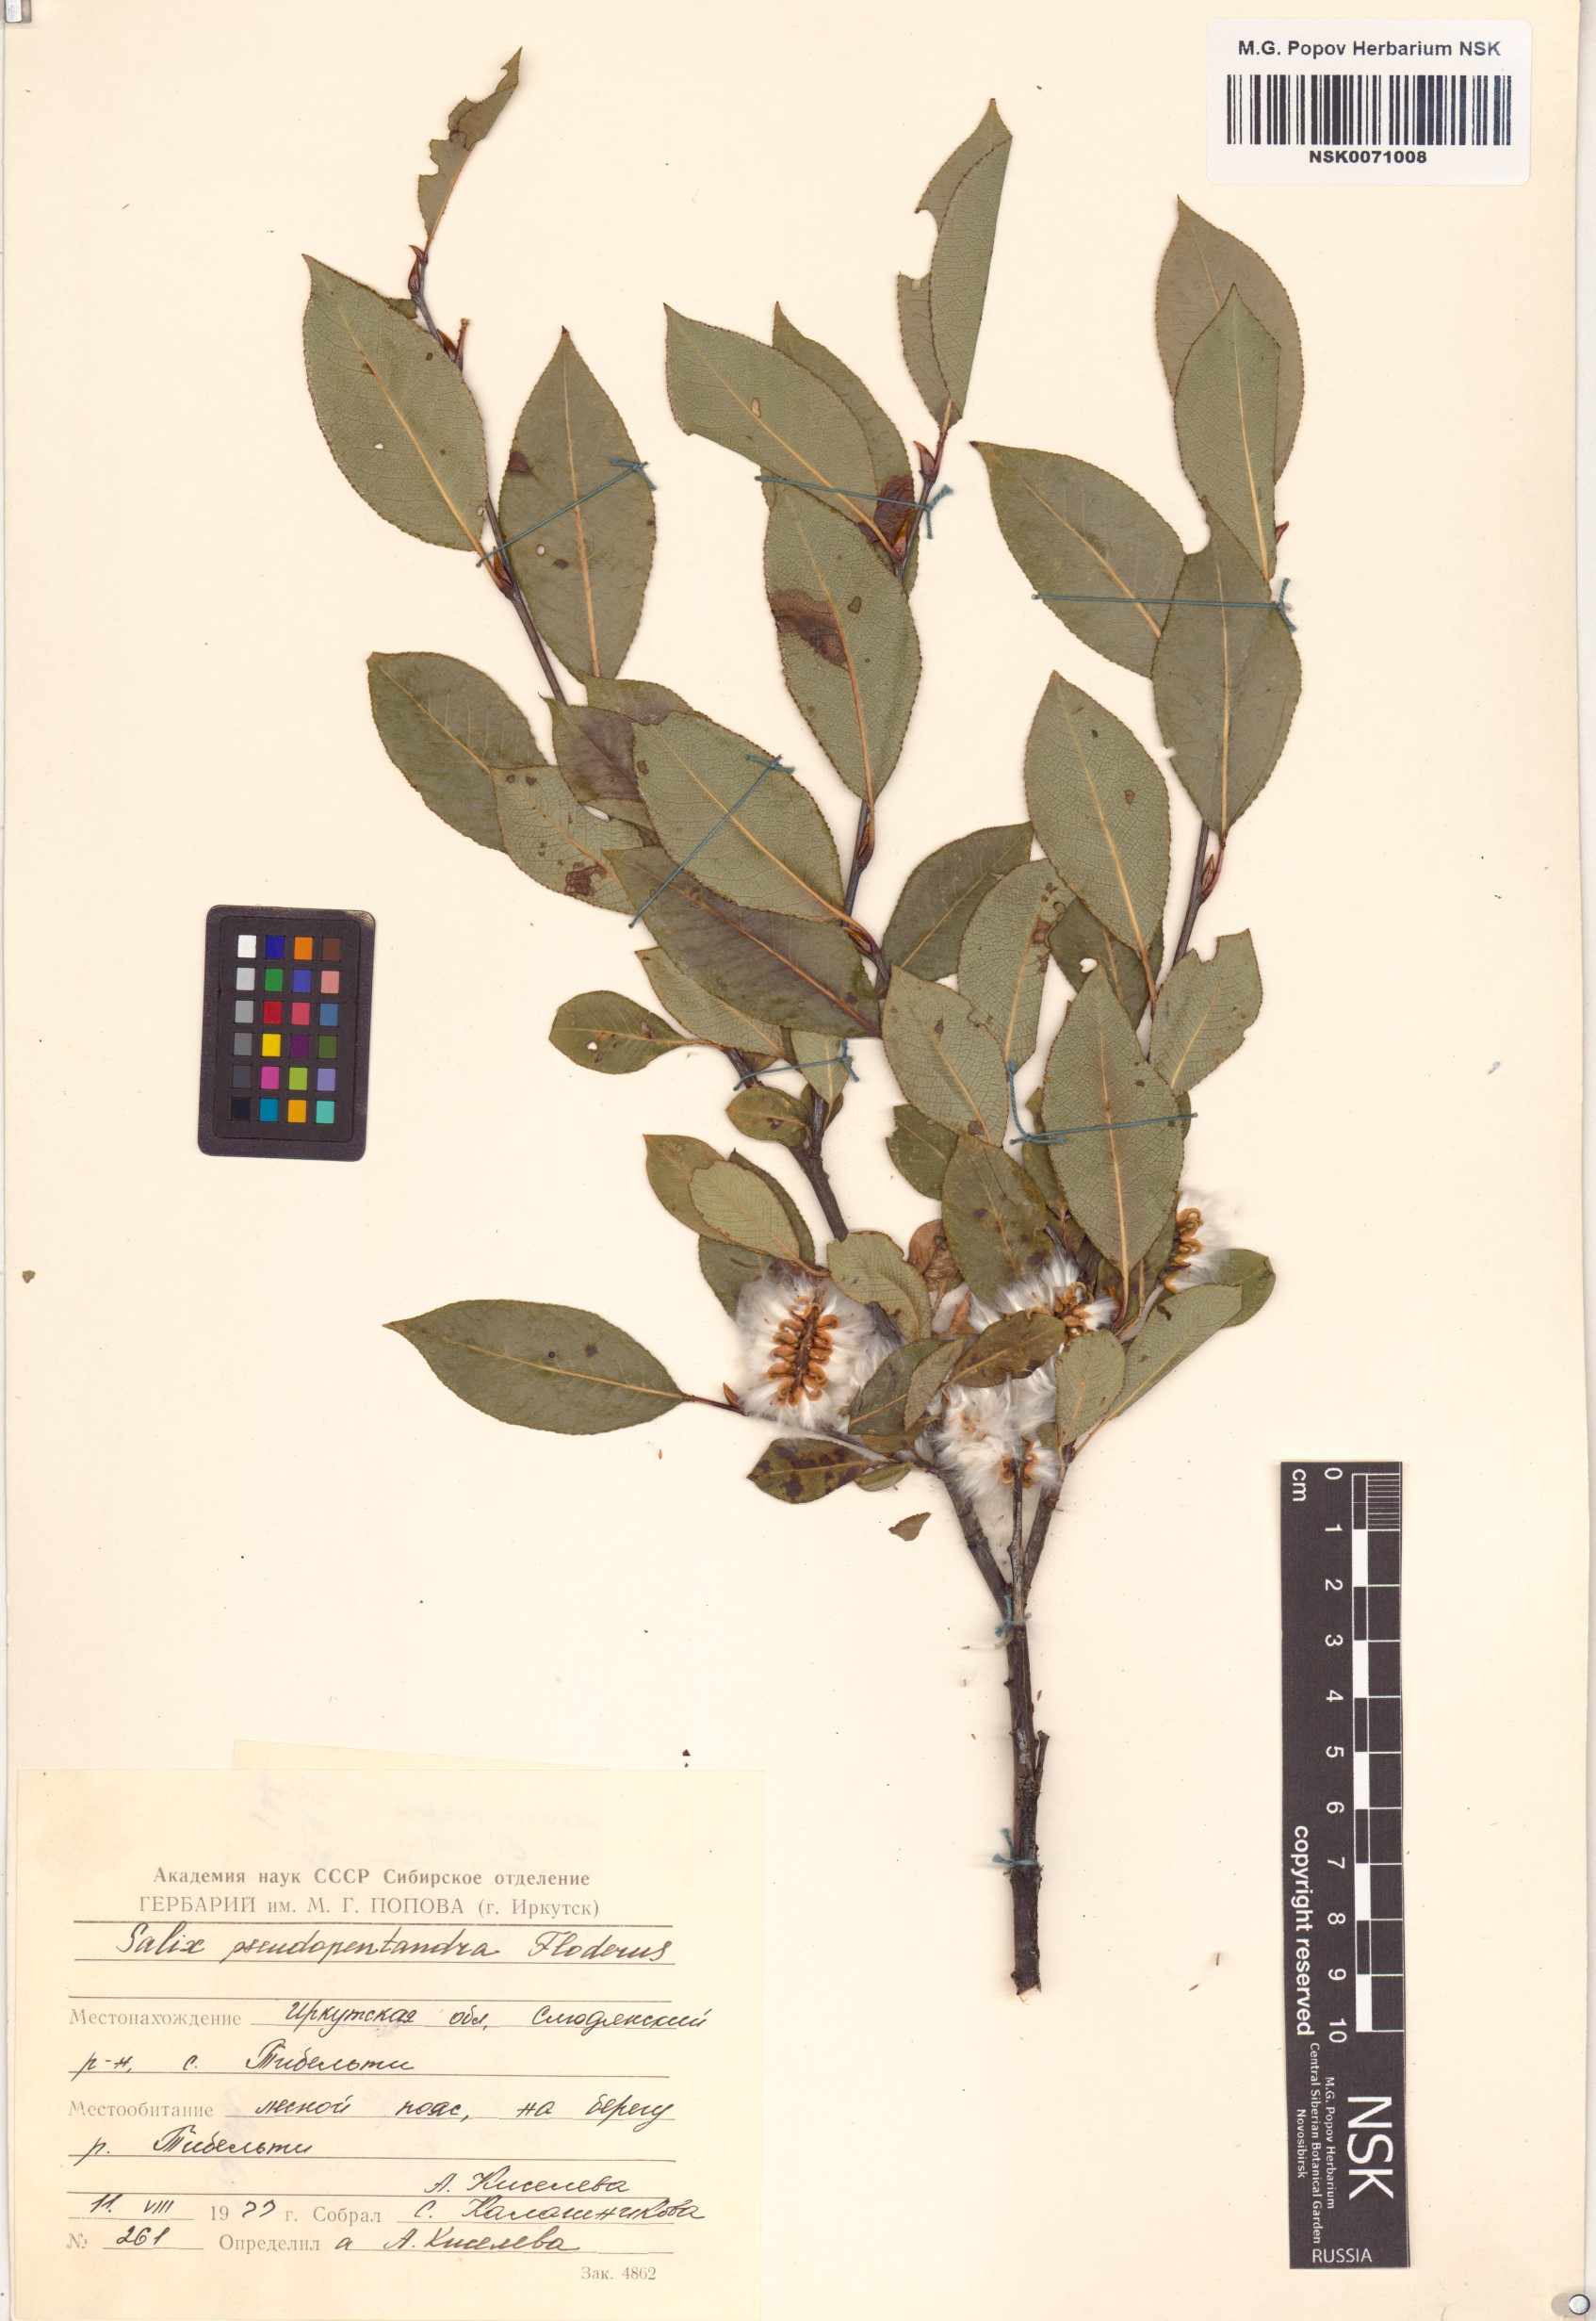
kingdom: Plantae
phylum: Tracheophyta
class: Magnoliopsida
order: Malpighiales
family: Salicaceae
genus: Salix
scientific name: Salix pseudopentandra
